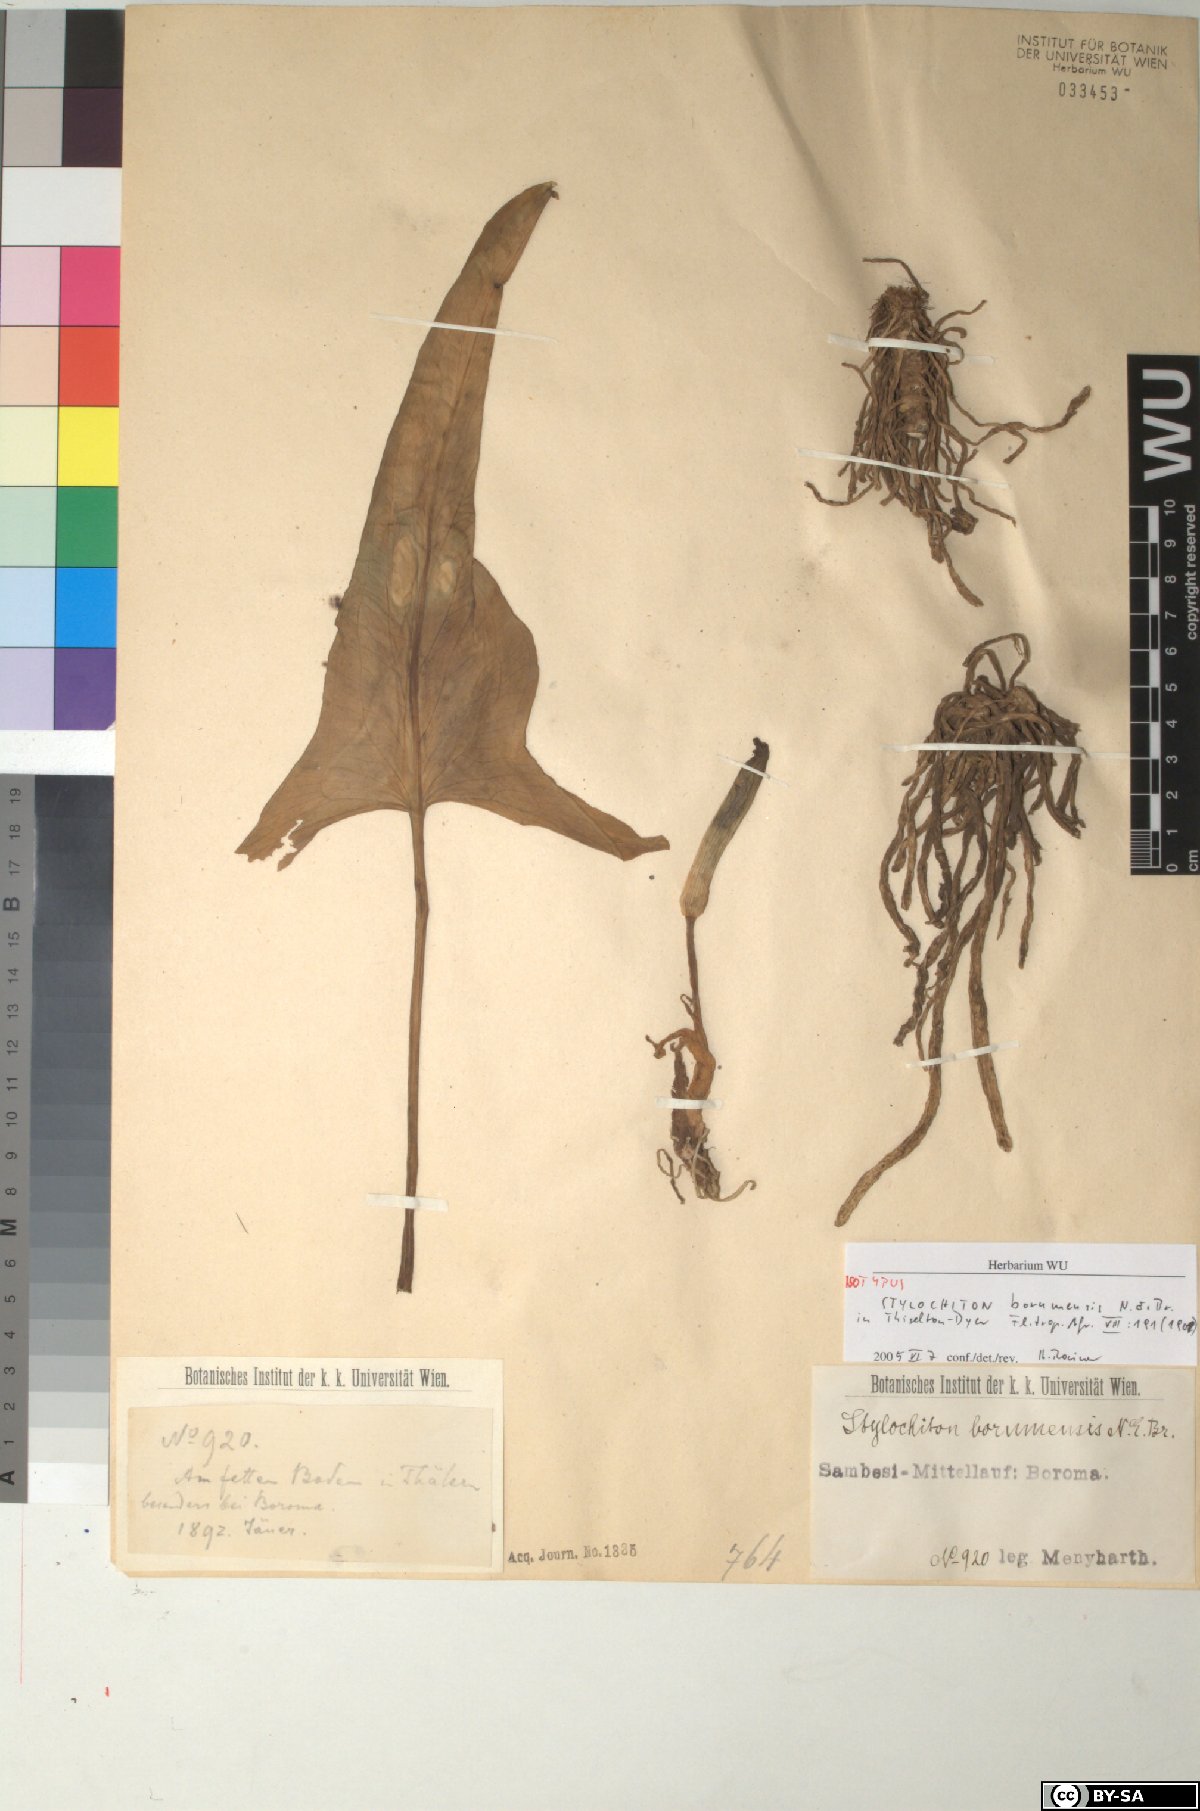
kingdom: Plantae
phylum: Tracheophyta
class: Liliopsida
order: Alismatales
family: Araceae
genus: Stylochaeton
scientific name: Stylochaeton borumense
